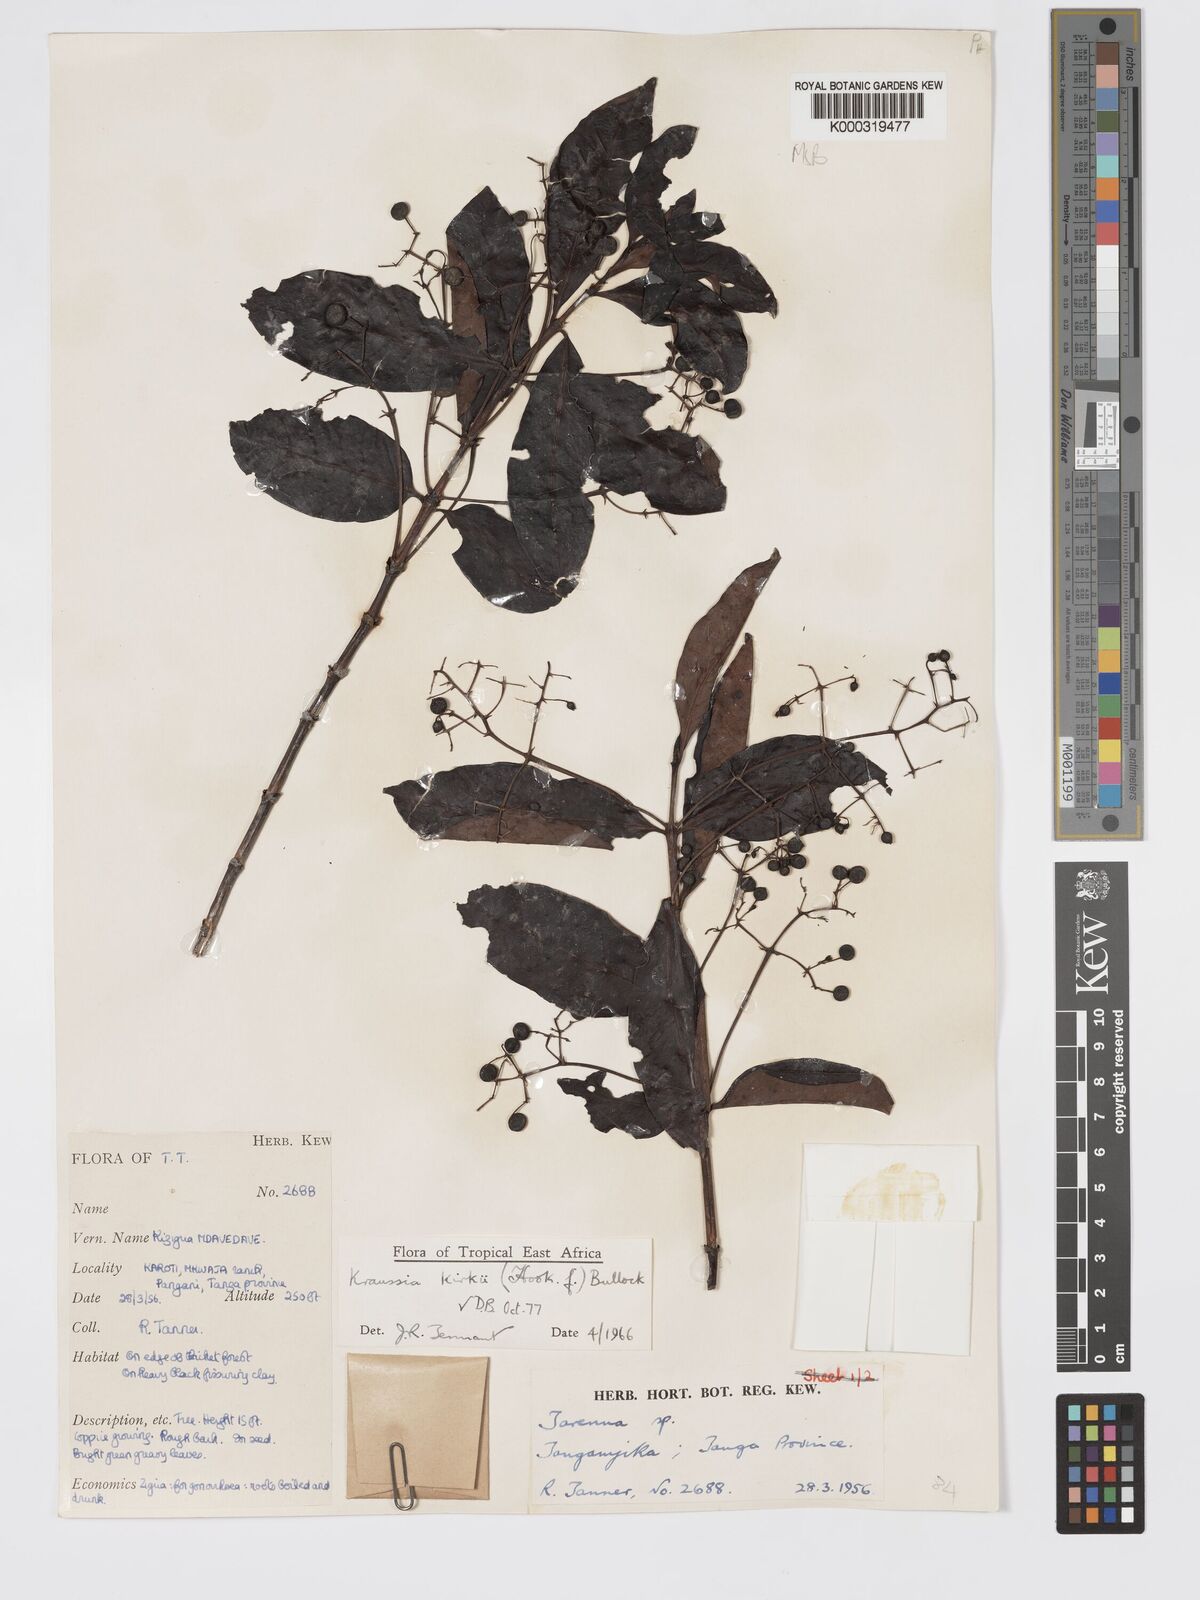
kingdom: Plantae
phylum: Tracheophyta
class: Magnoliopsida
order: Gentianales
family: Rubiaceae
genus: Kraussia
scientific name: Kraussia kirkii
